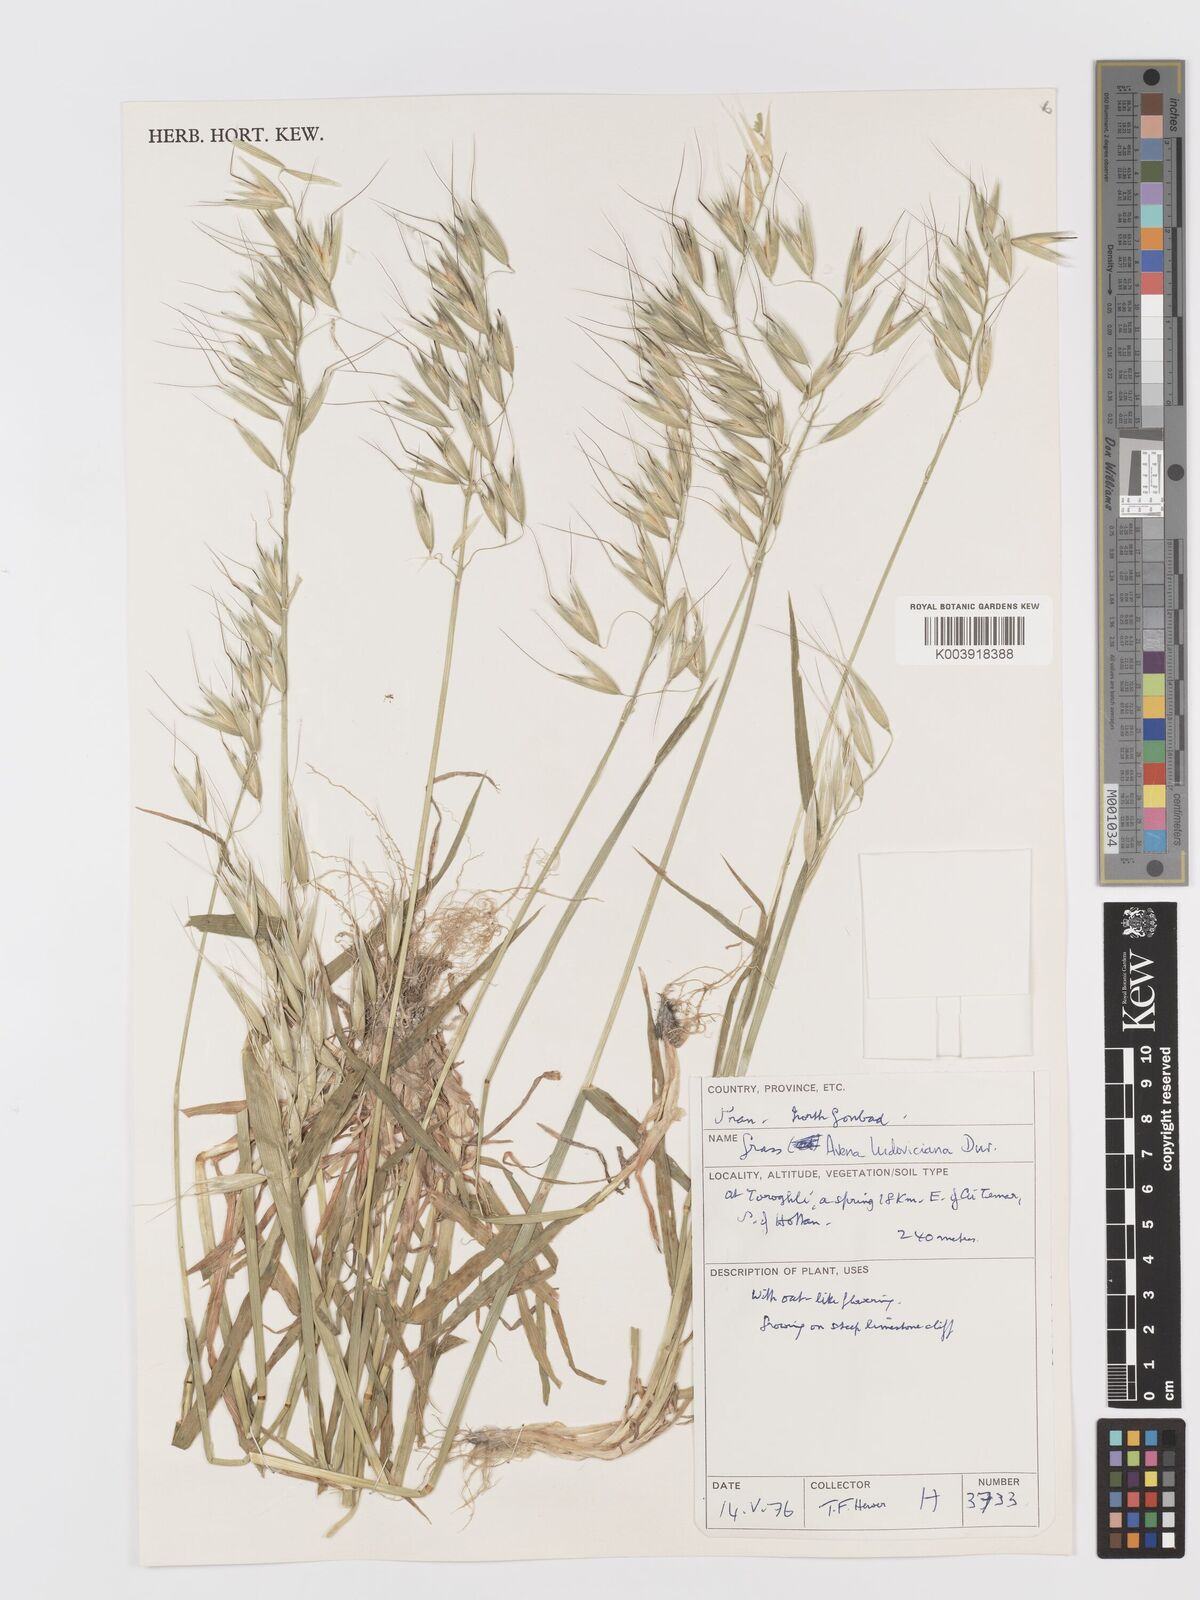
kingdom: Plantae
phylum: Tracheophyta
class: Liliopsida
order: Poales
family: Poaceae
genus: Avena
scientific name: Avena sterilis
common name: Animated oat
